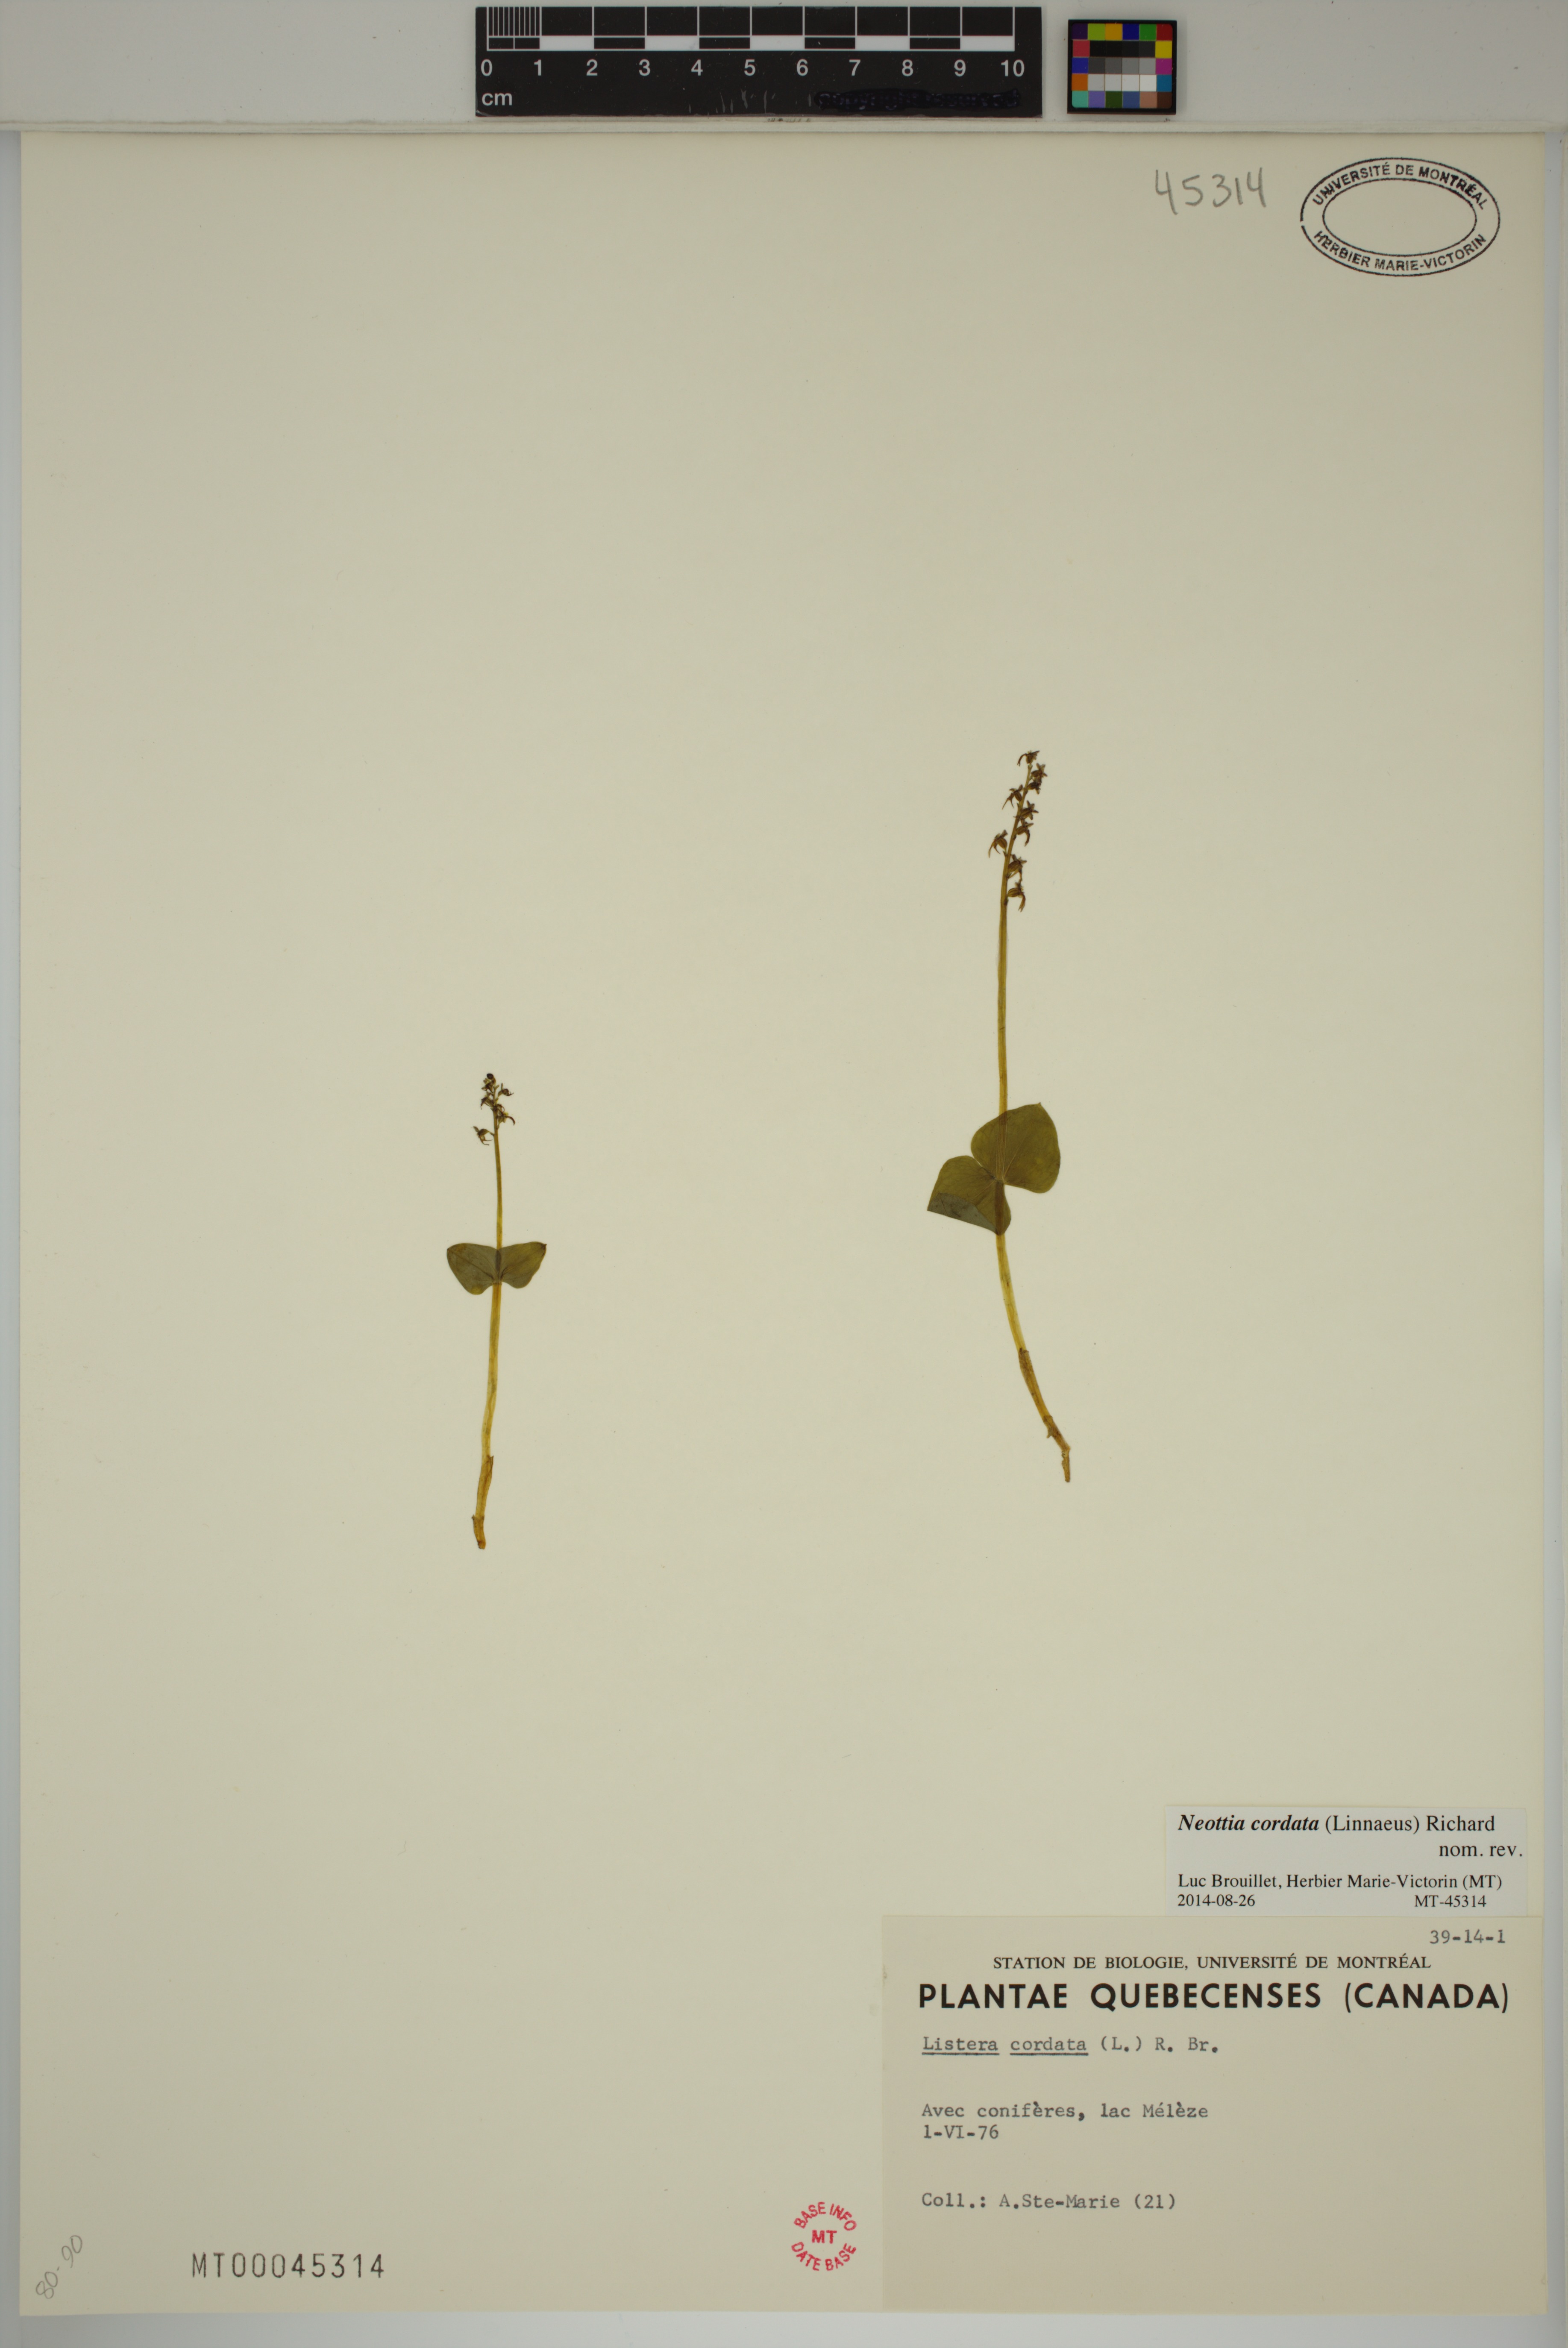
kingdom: Plantae
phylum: Tracheophyta
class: Liliopsida
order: Asparagales
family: Orchidaceae
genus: Neottia
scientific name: Neottia cordata
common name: Lesser twayblade
